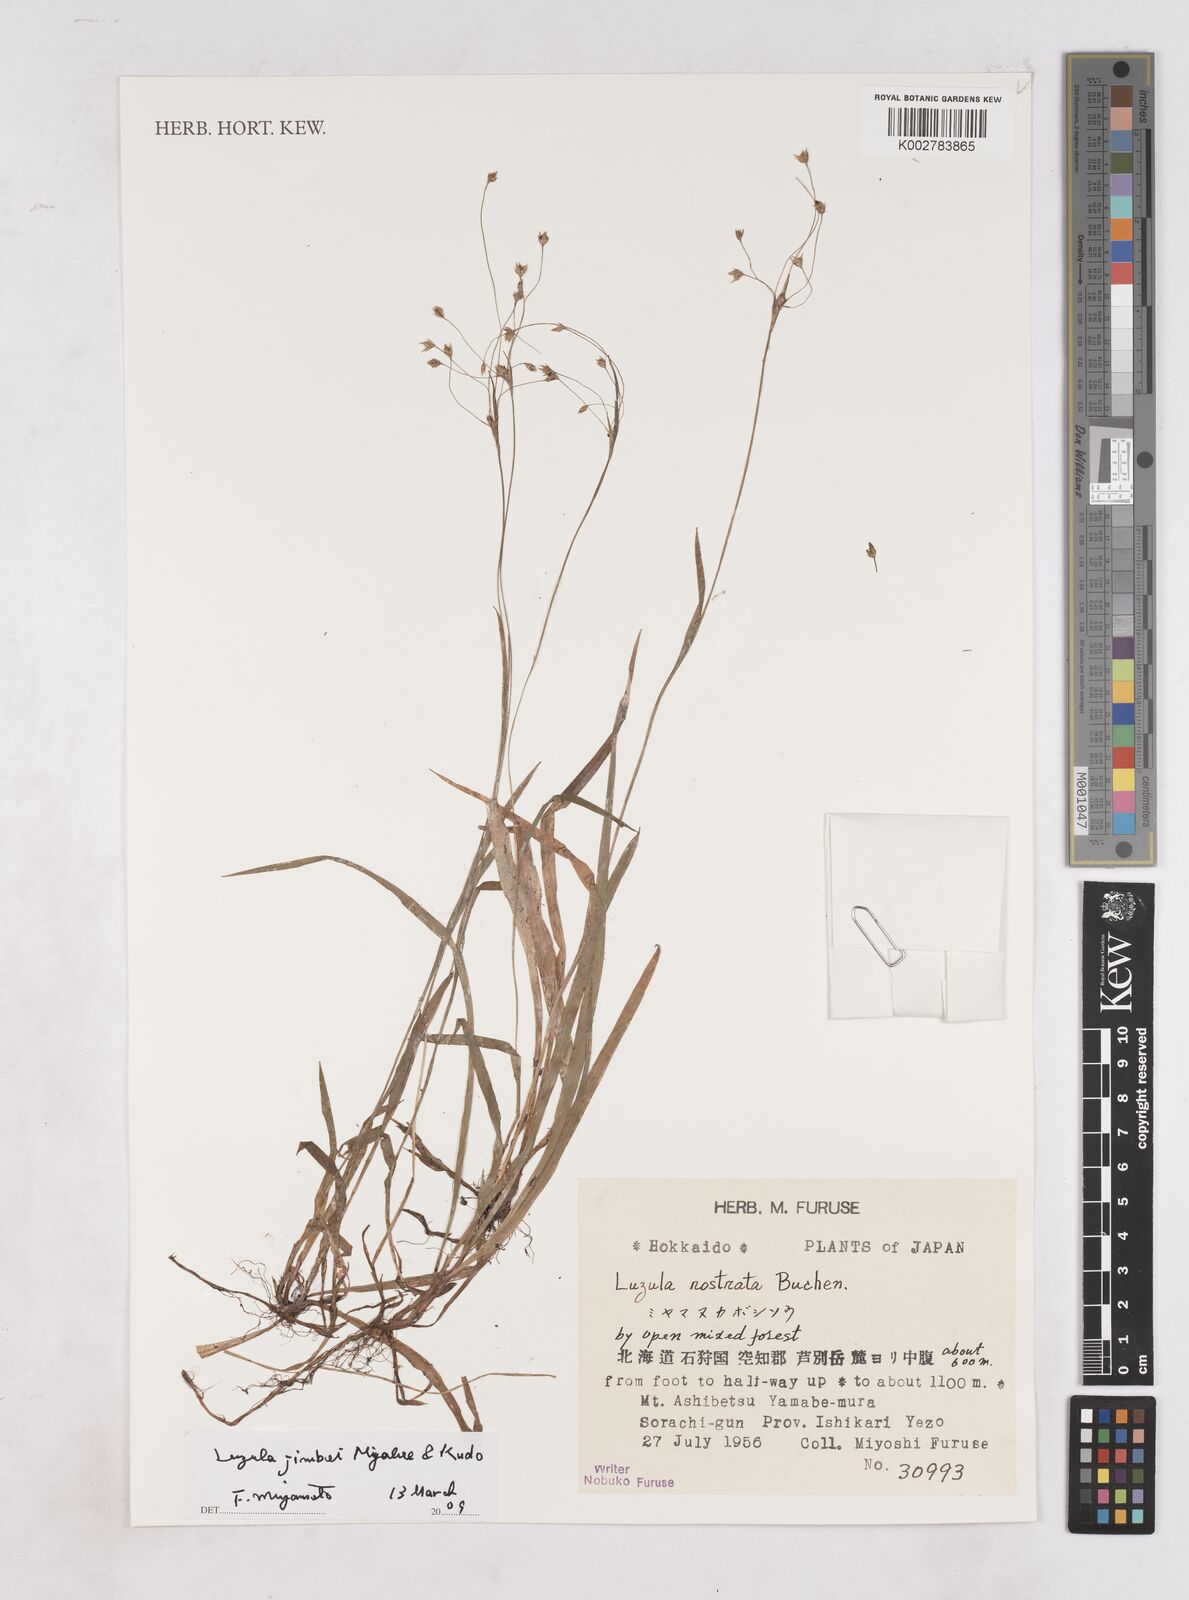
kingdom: Plantae
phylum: Tracheophyta
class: Liliopsida
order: Poales
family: Juncaceae
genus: Luzula
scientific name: Luzula plumosa
